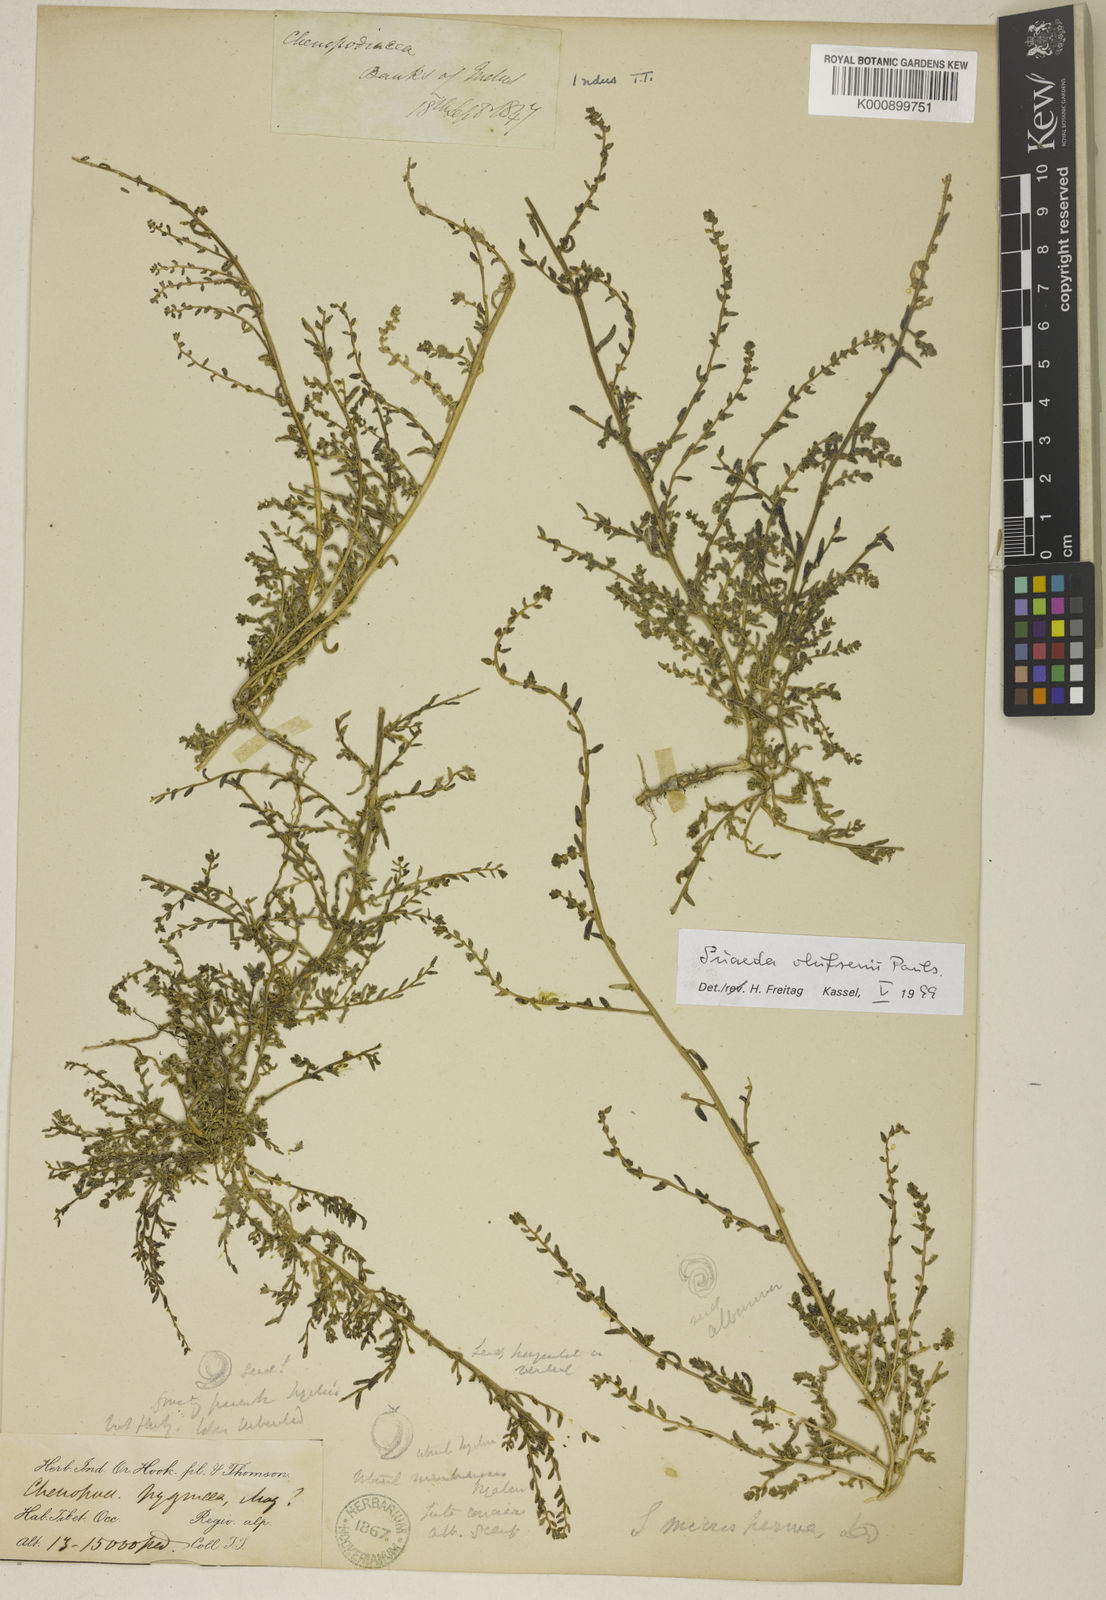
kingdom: Plantae
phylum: Tracheophyta
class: Magnoliopsida
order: Caryophyllales
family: Amaranthaceae
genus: Suaeda
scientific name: Suaeda olufsenii
